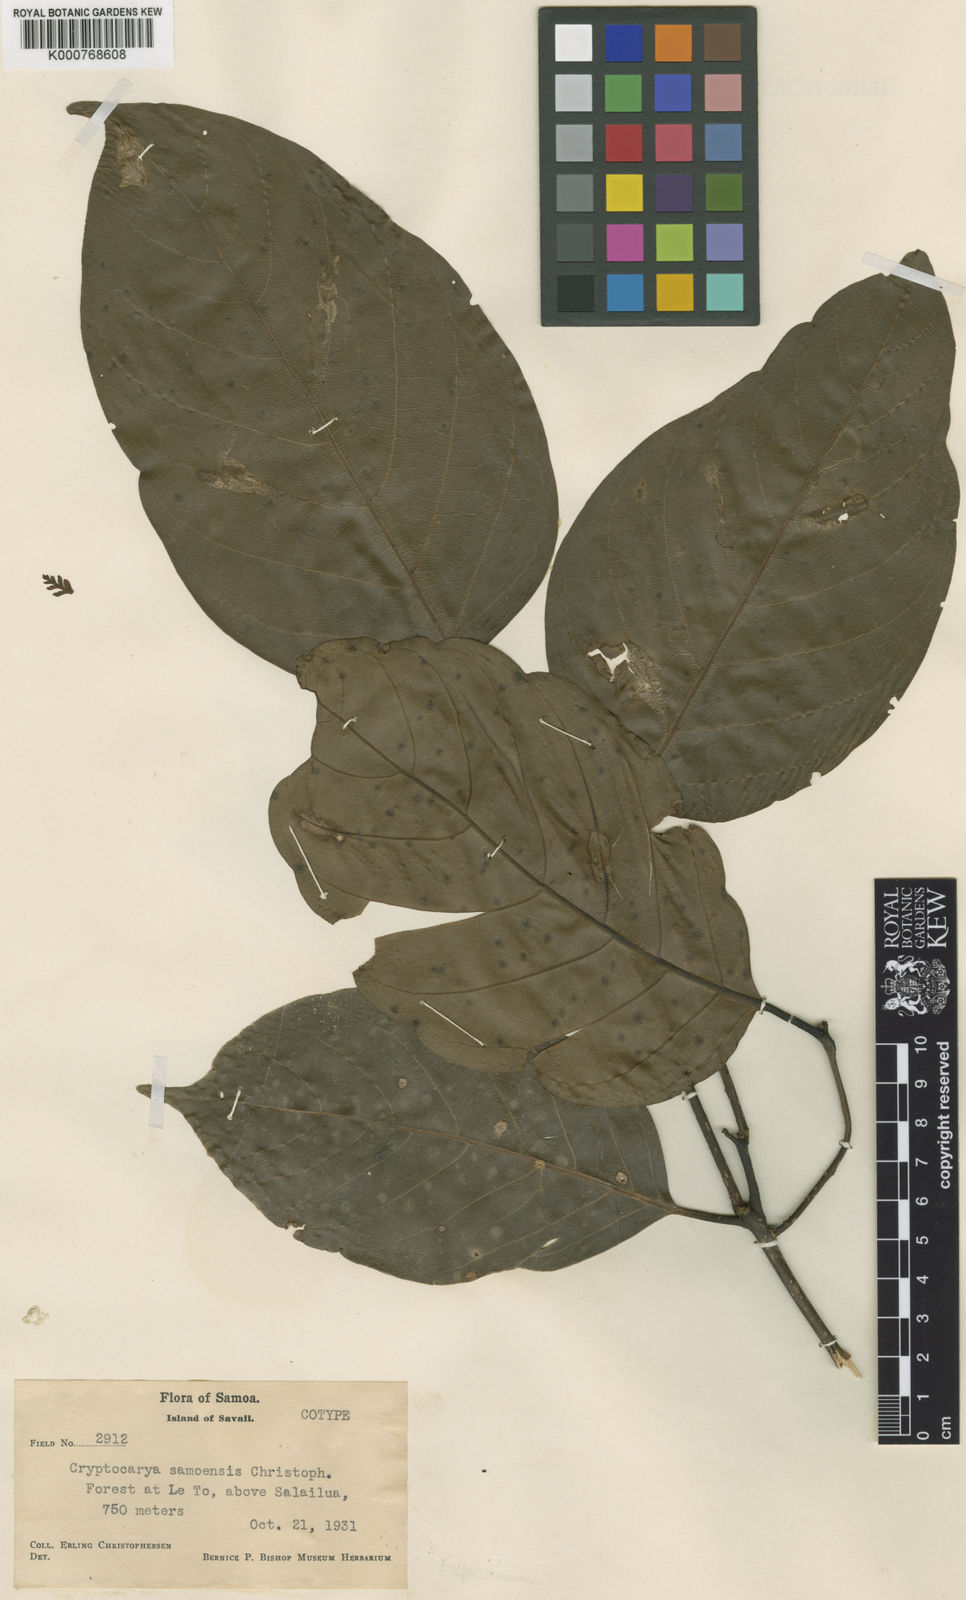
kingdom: Plantae
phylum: Tracheophyta
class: Magnoliopsida
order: Laurales
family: Lauraceae
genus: Cryptocarya
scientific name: Cryptocarya samoensis
